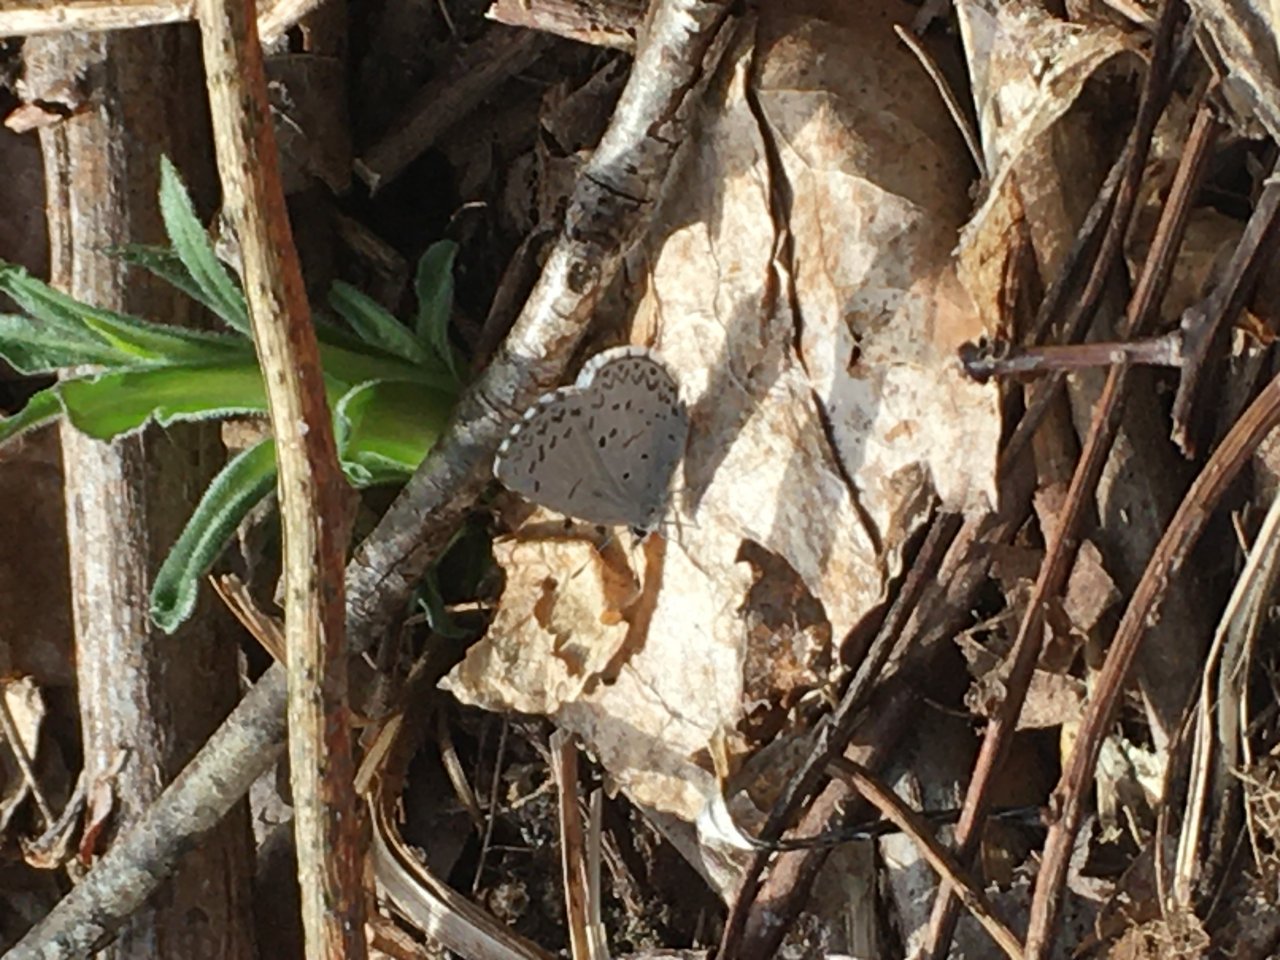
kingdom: Animalia
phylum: Arthropoda
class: Insecta
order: Lepidoptera
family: Lycaenidae
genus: Celastrina
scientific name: Celastrina
